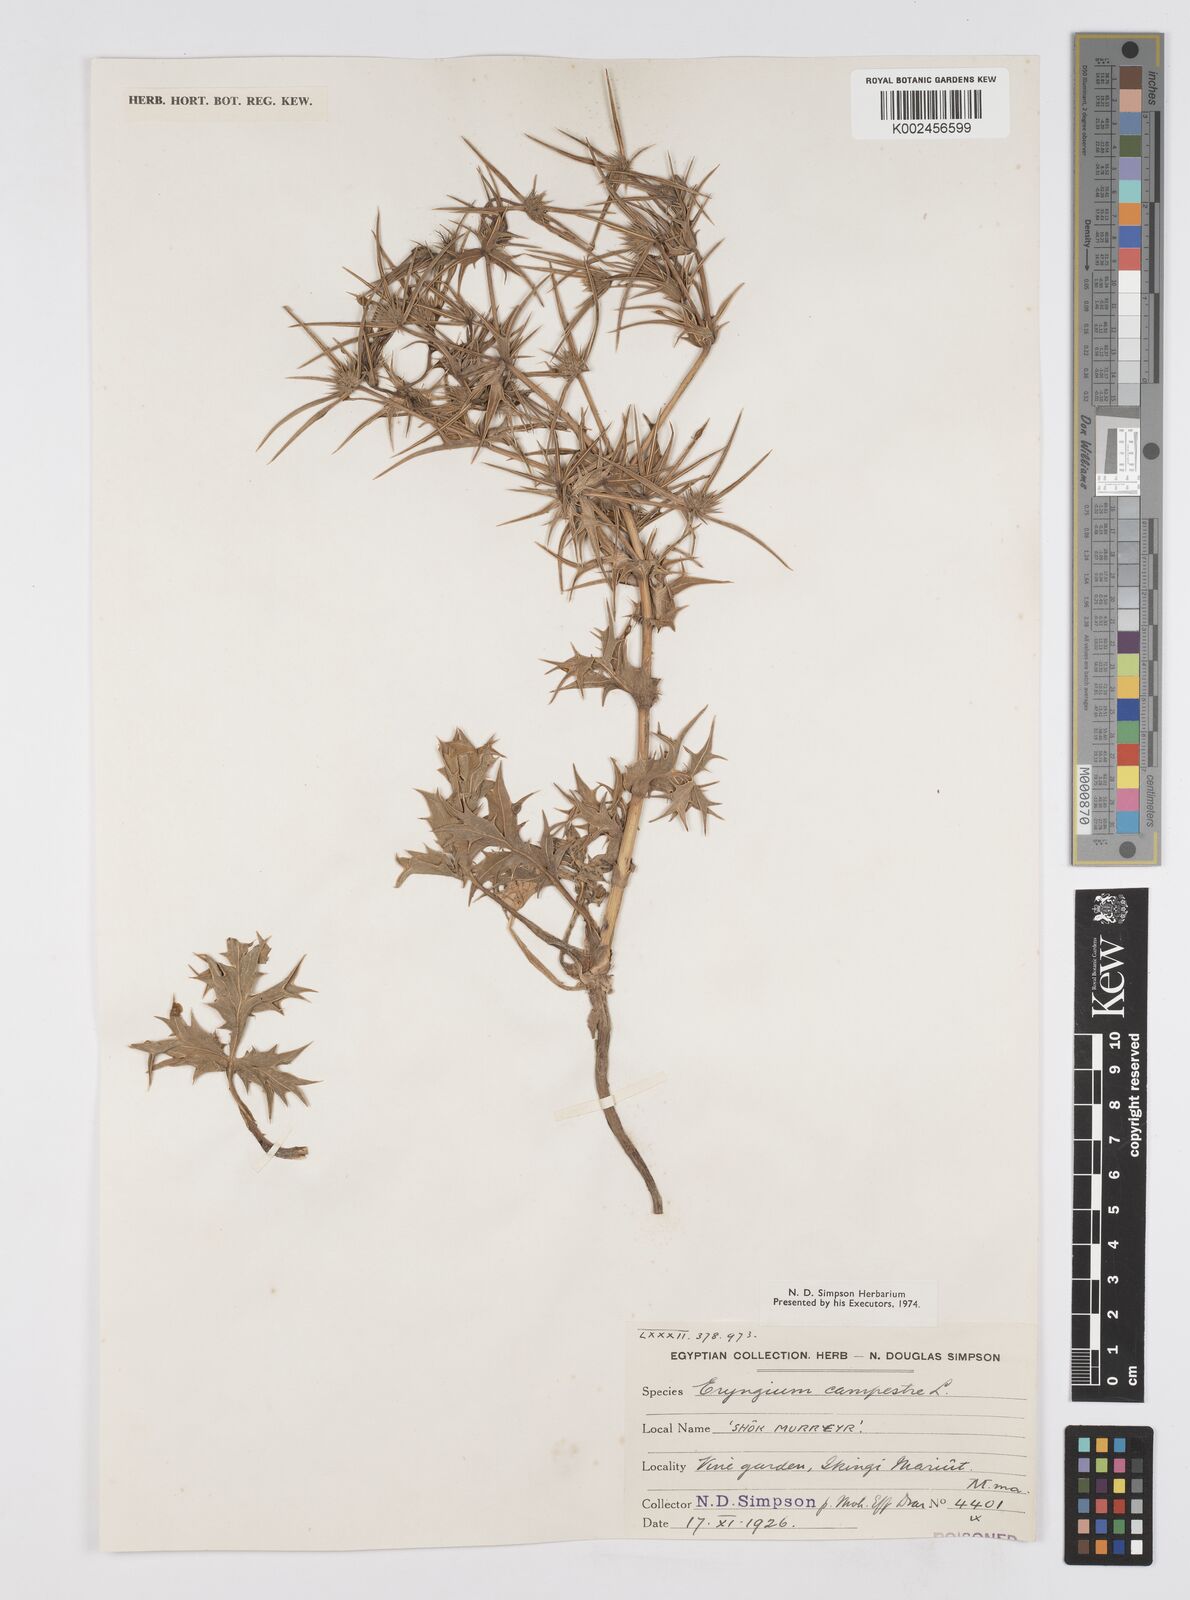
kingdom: Plantae
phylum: Tracheophyta
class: Magnoliopsida
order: Apiales
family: Apiaceae
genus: Eryngium
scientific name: Eryngium campestre
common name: Field eryngo
